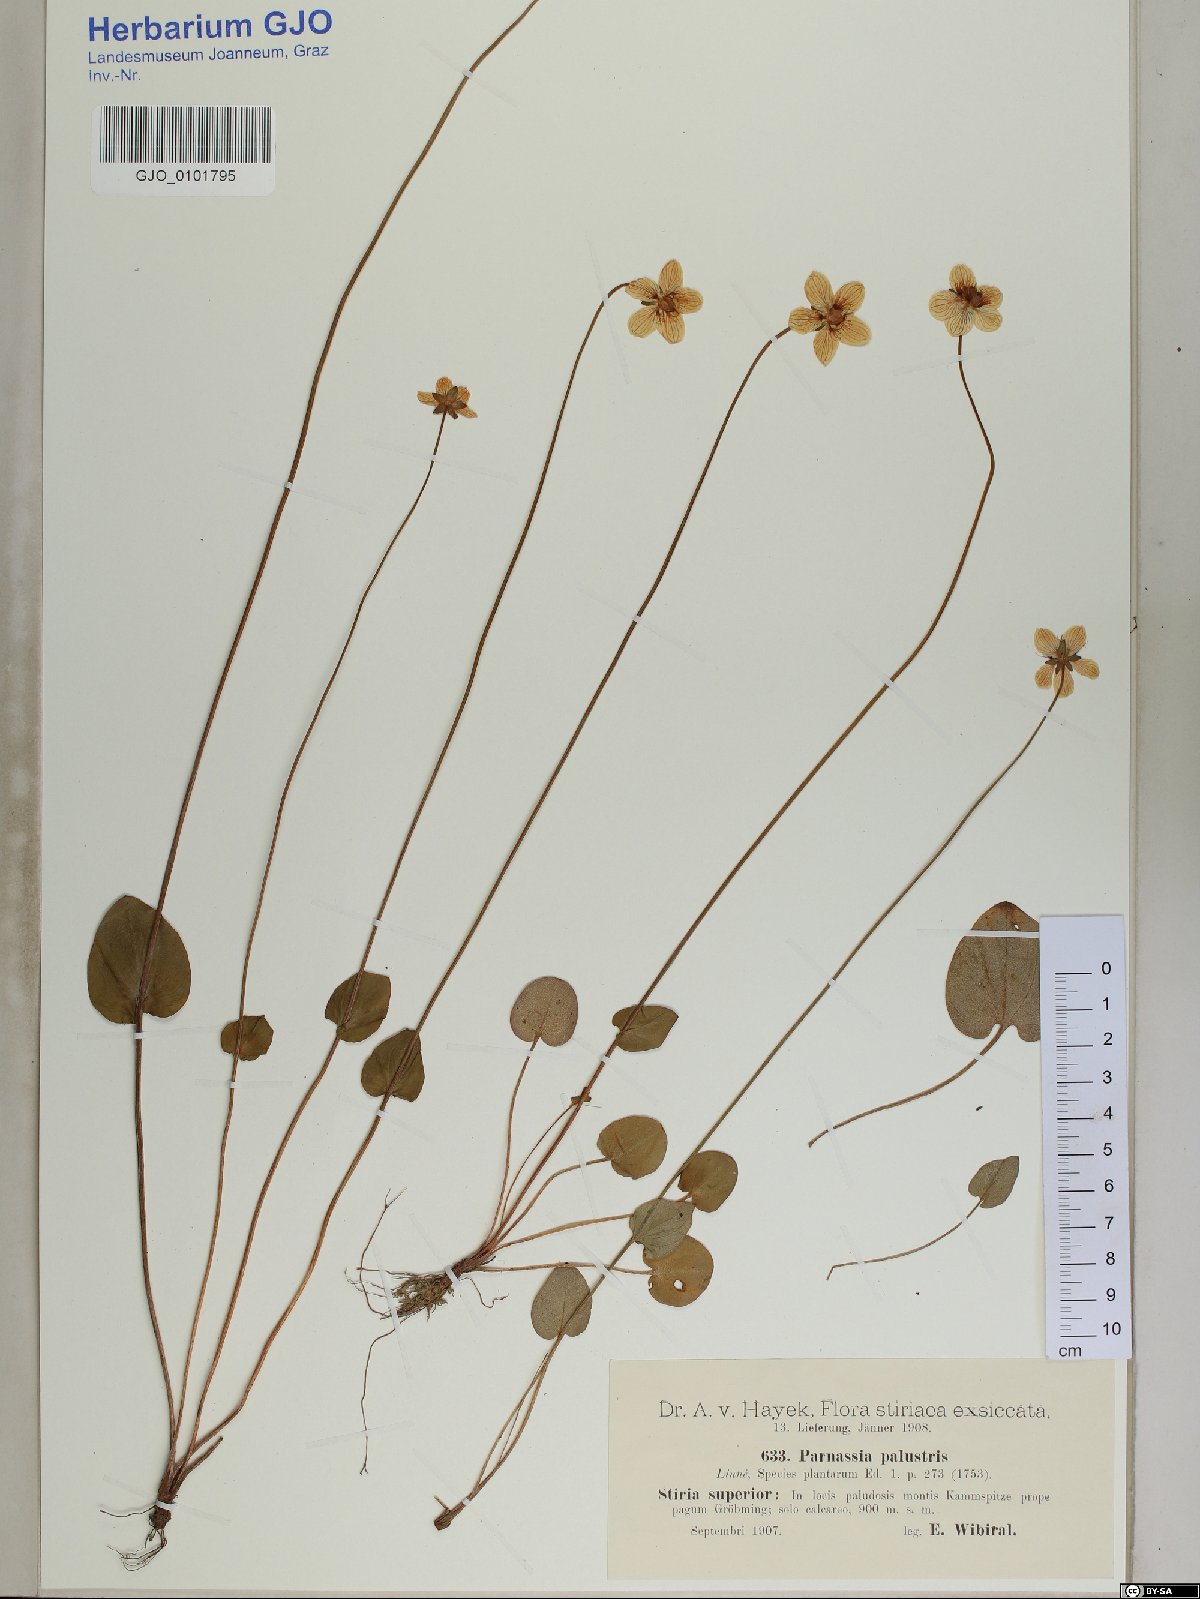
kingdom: Plantae
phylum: Tracheophyta
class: Magnoliopsida
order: Celastrales
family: Parnassiaceae
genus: Parnassia
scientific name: Parnassia palustris
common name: Grass-of-parnassus
